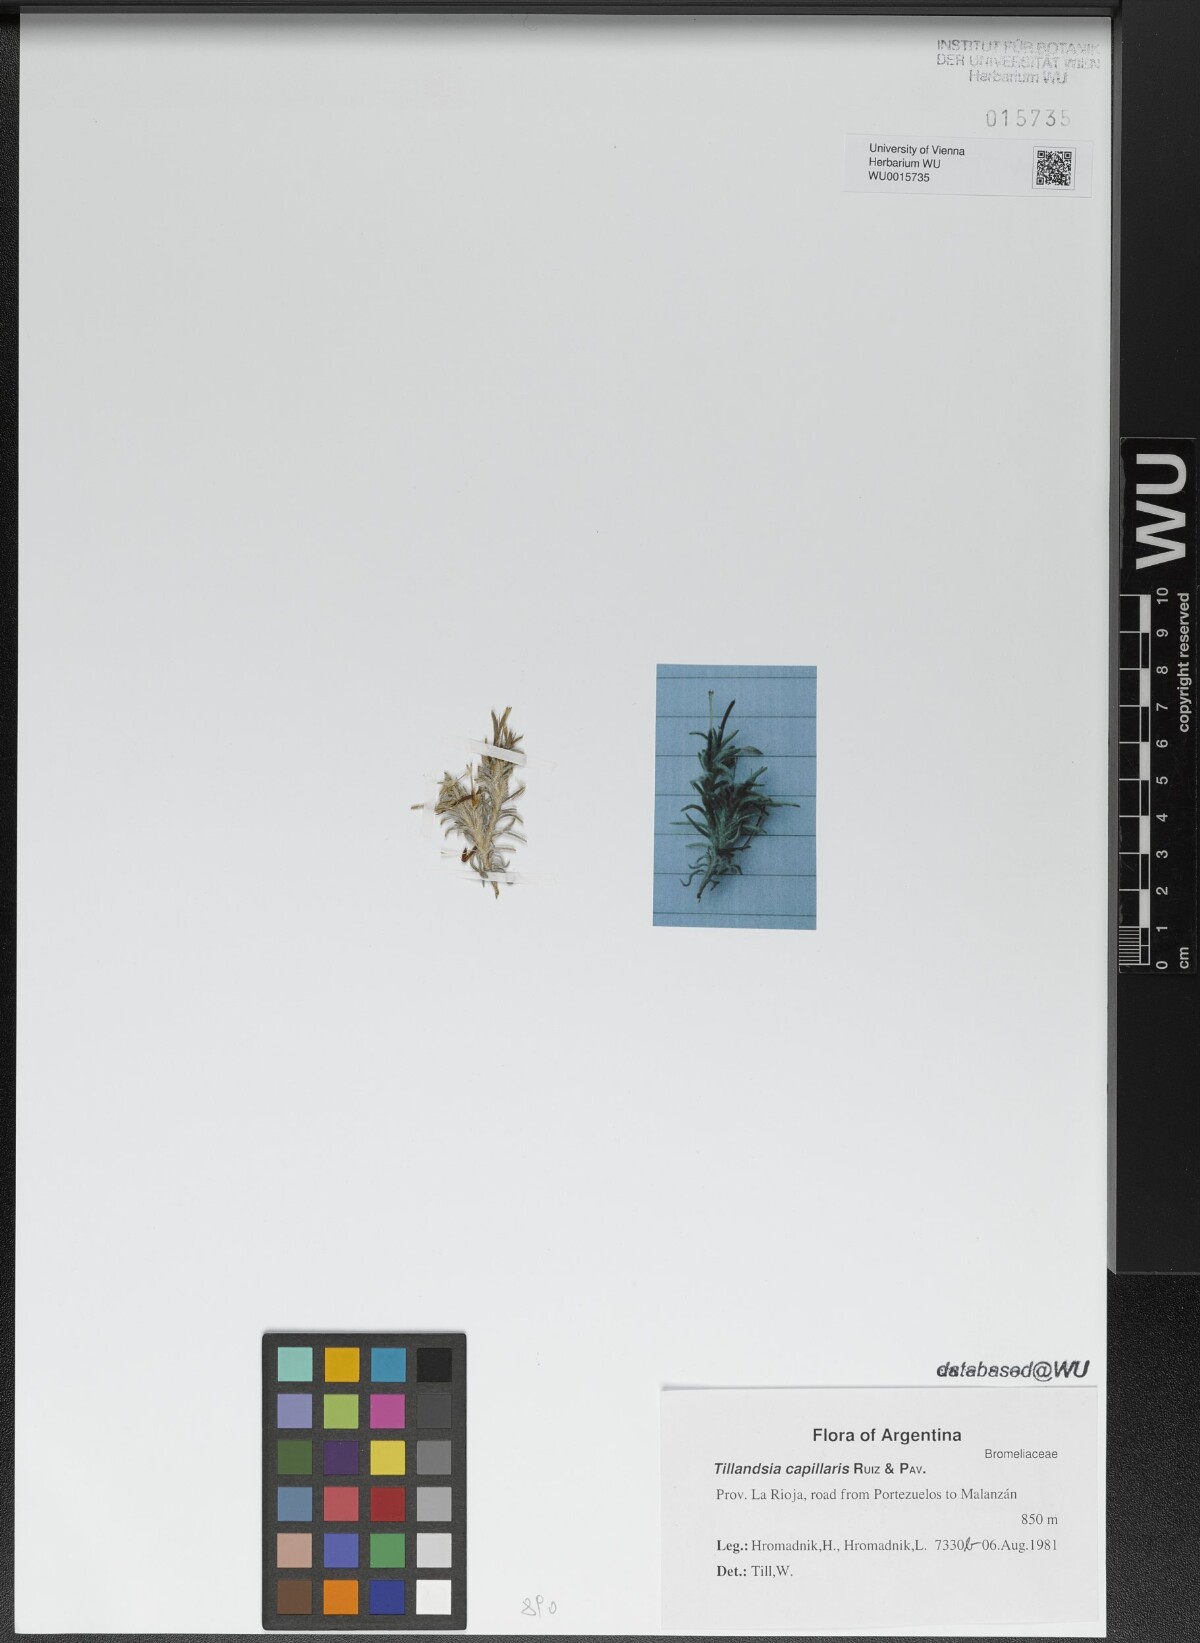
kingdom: Plantae
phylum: Tracheophyta
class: Liliopsida
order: Poales
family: Bromeliaceae
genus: Tillandsia
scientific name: Tillandsia capillaris
